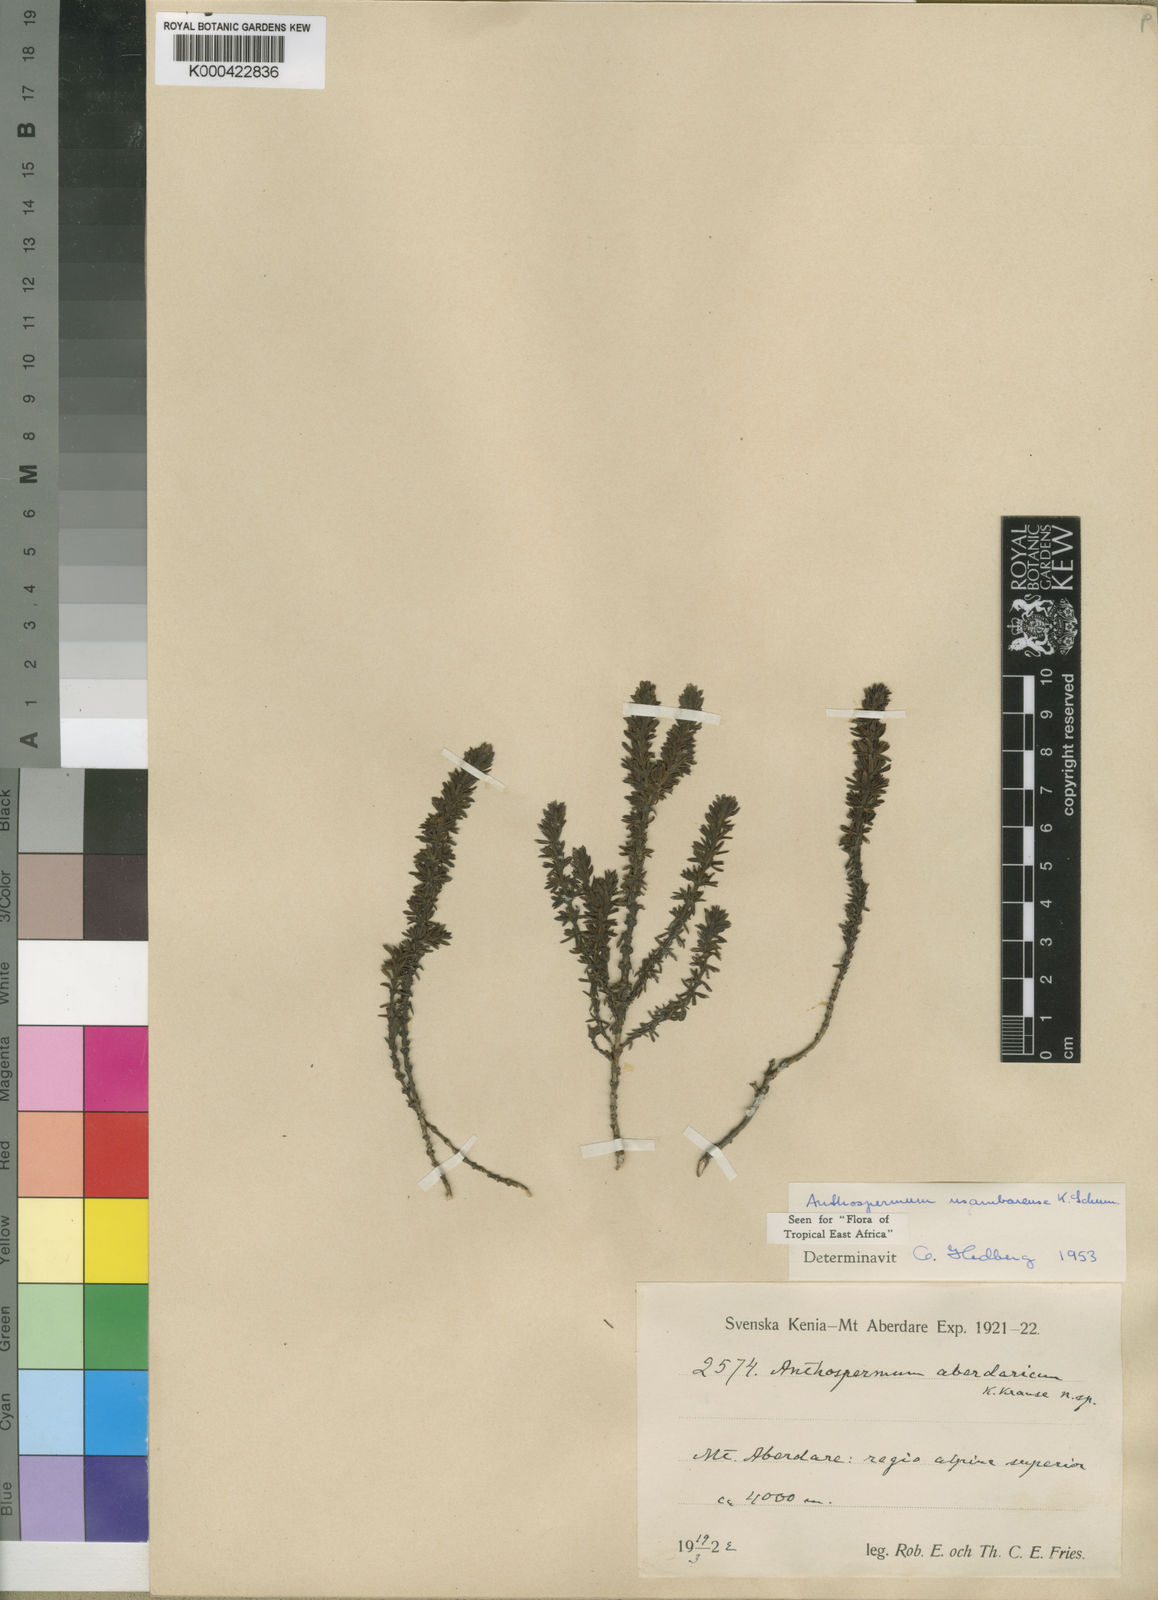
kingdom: Plantae
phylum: Tracheophyta
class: Magnoliopsida
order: Gentianales
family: Rubiaceae
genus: Anthospermum
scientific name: Anthospermum usambarense
